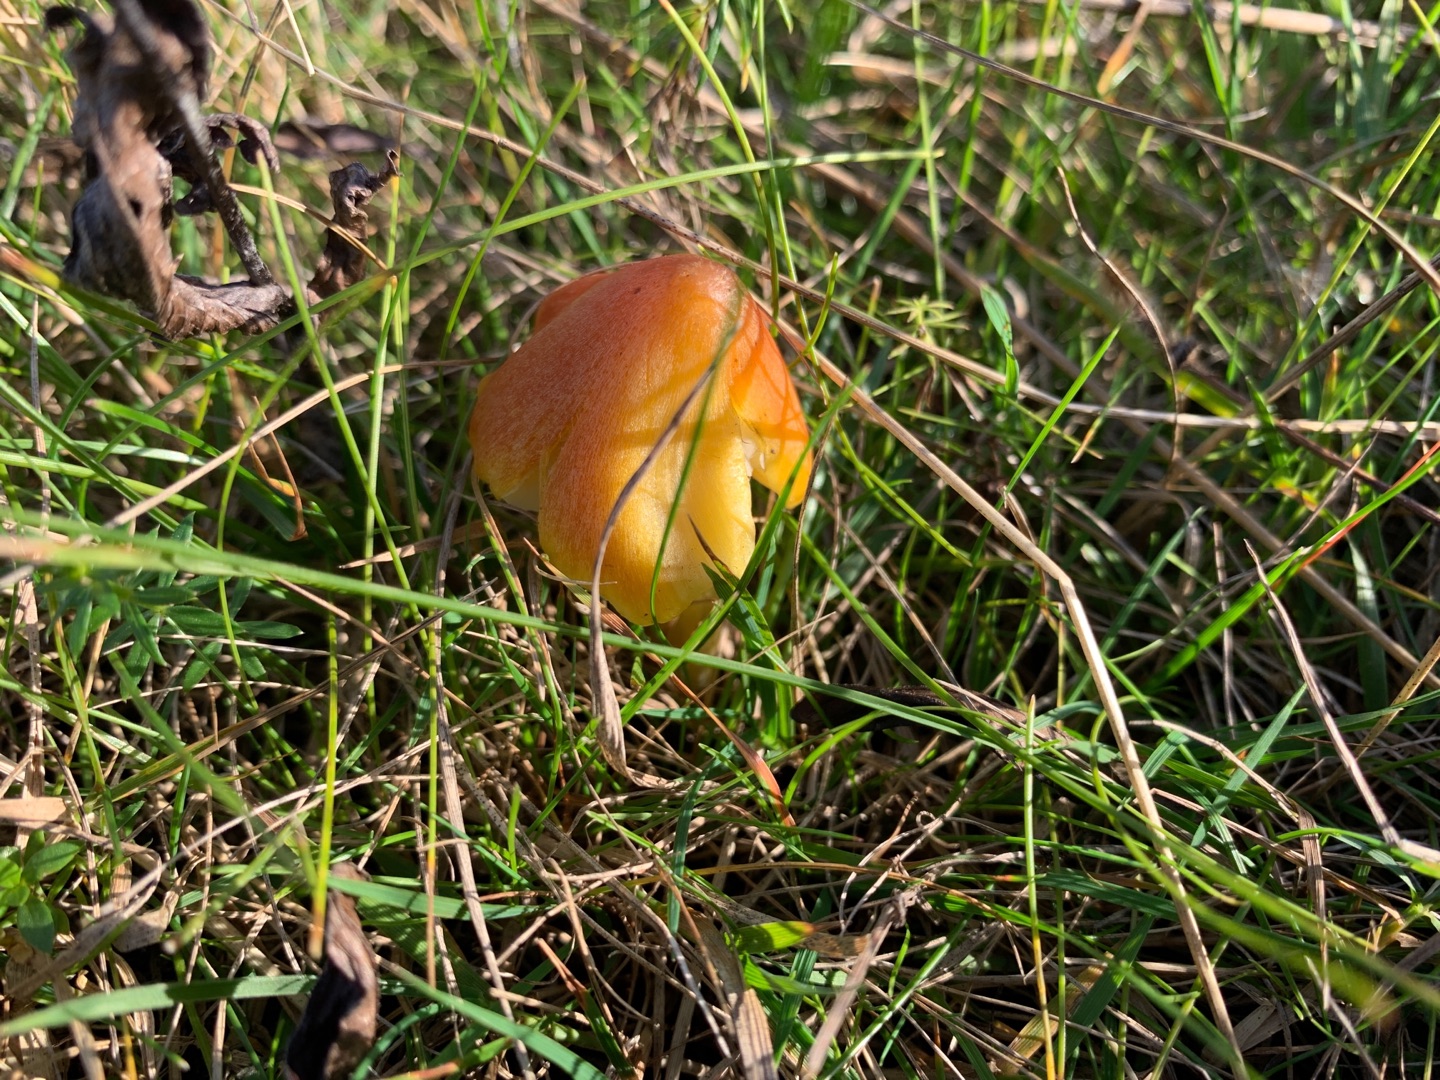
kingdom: Fungi
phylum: Basidiomycota
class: Agaricomycetes
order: Agaricales
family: Hygrophoraceae
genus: Hygrocybe
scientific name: Hygrocybe conica
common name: Kegle-vokshat
